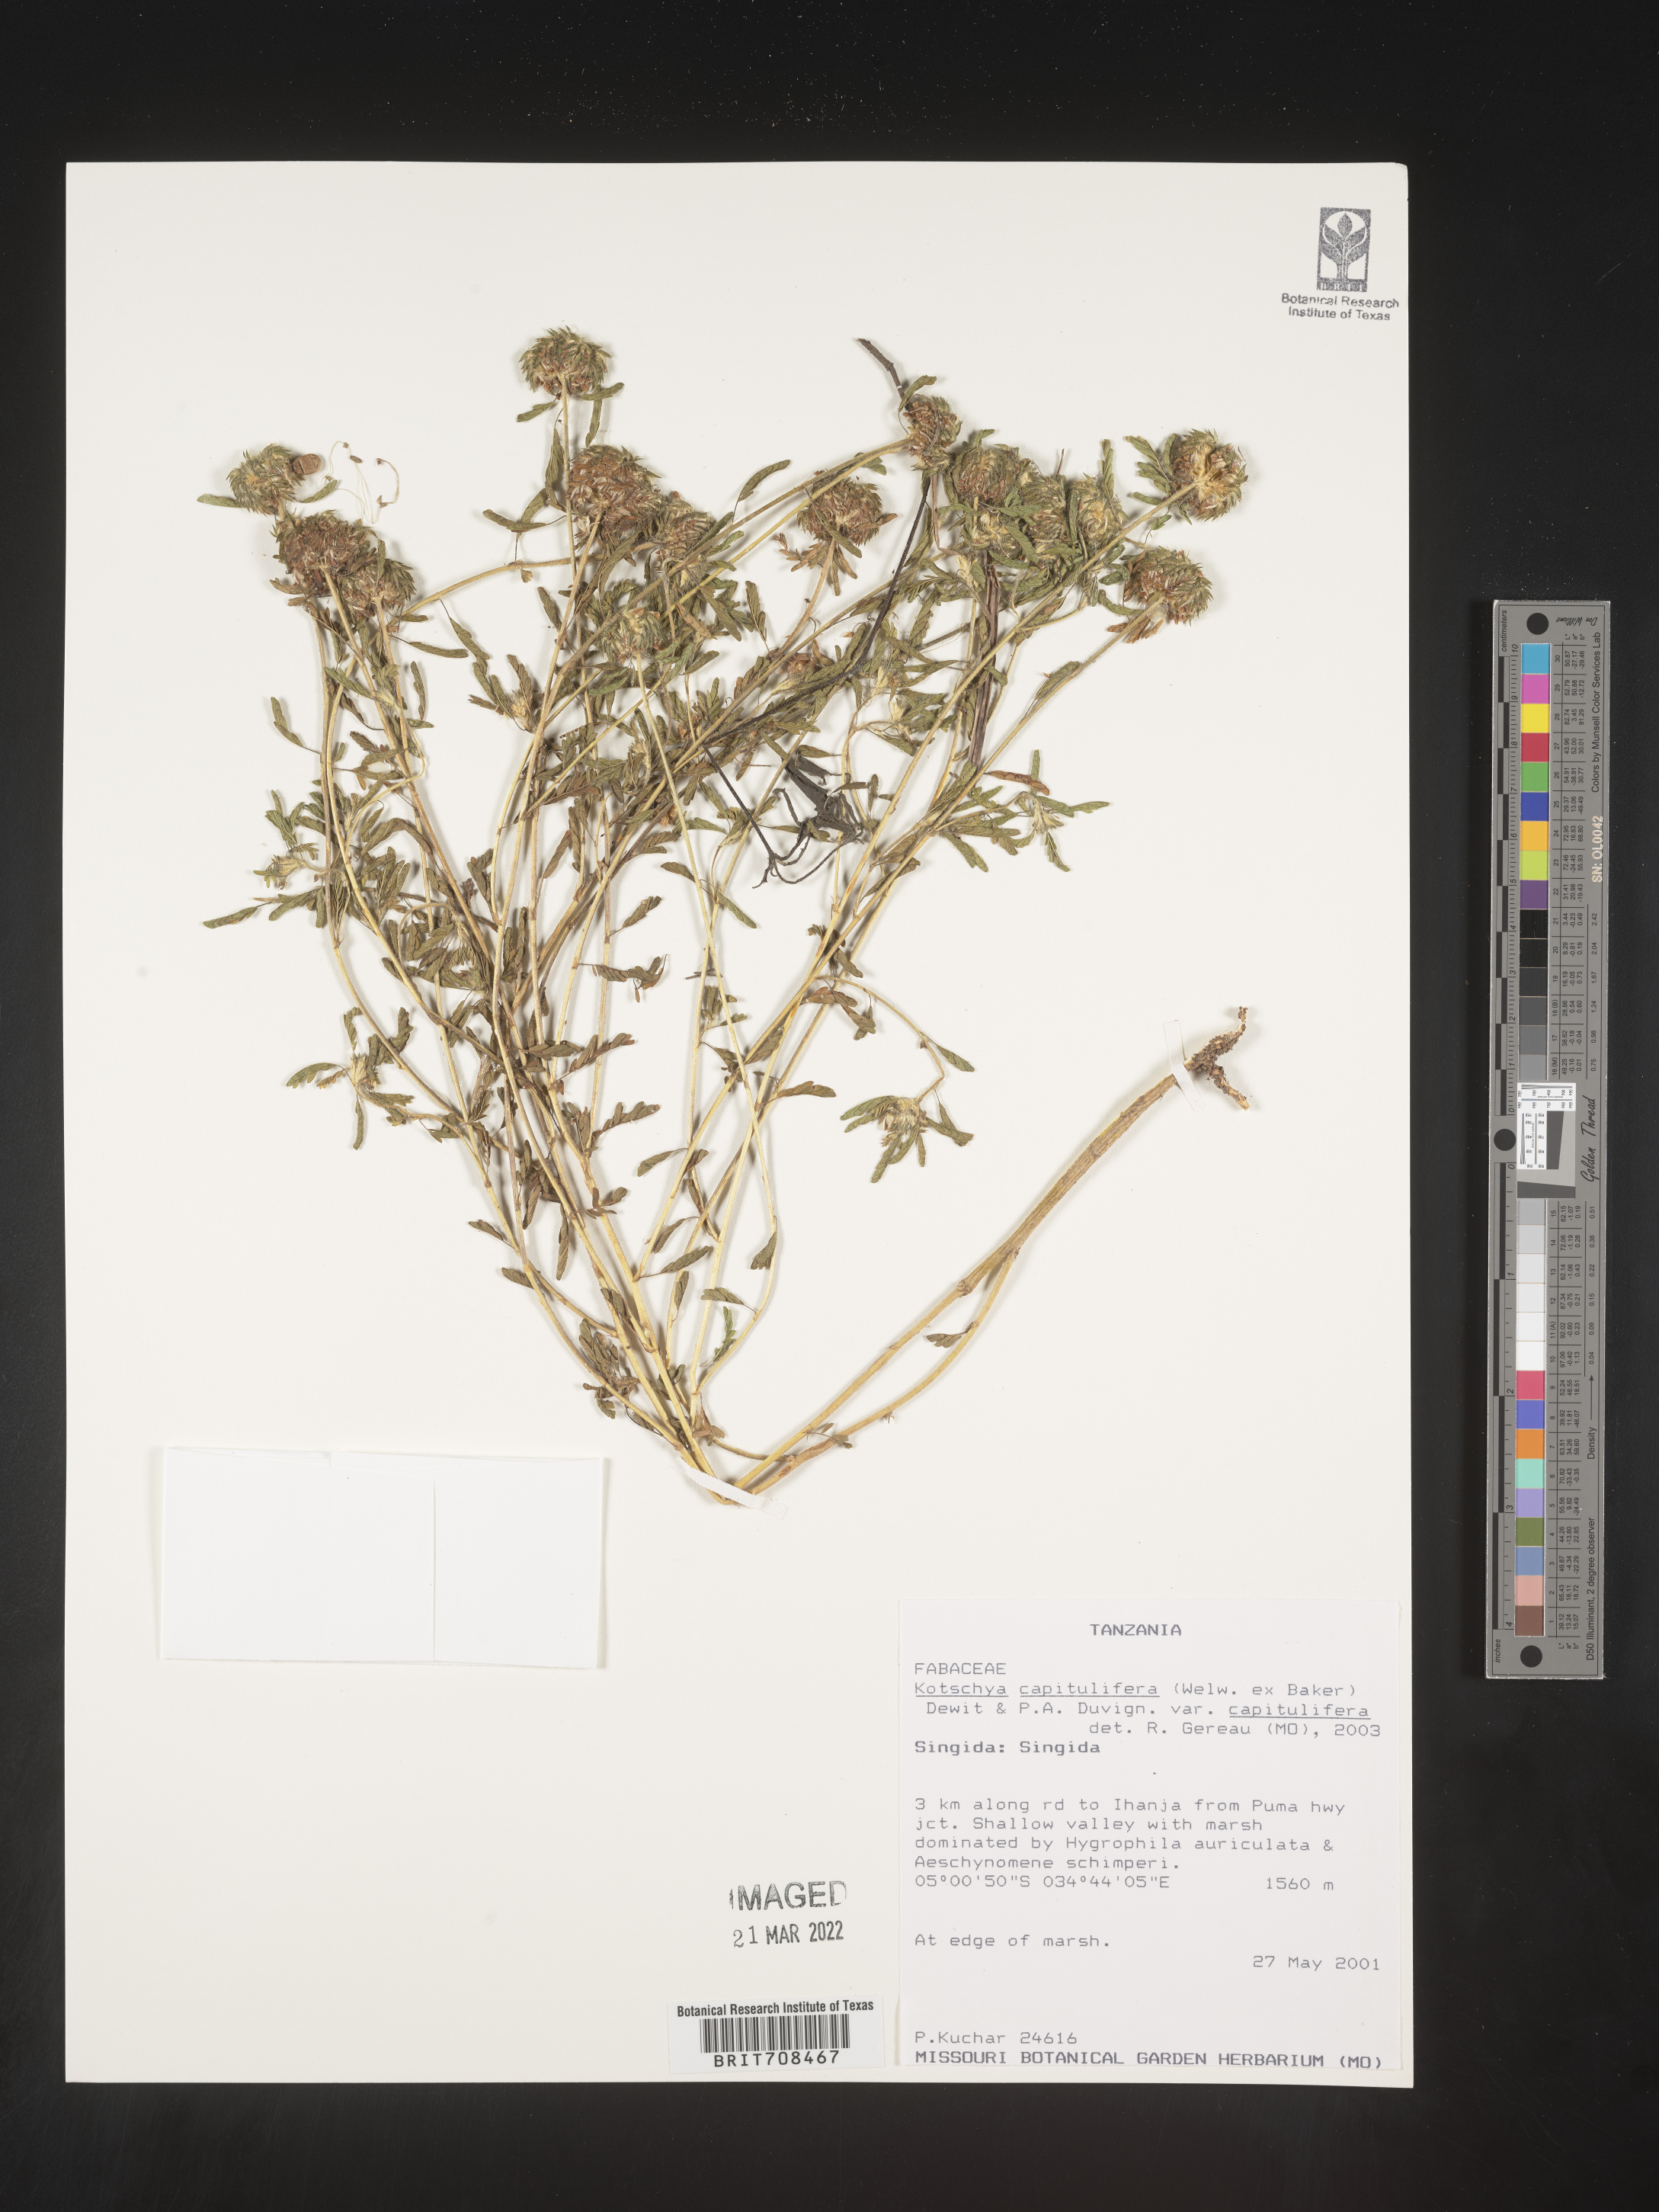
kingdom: Plantae
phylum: Tracheophyta
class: Magnoliopsida
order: Fabales
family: Fabaceae
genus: Kotschya
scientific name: Kotschya
